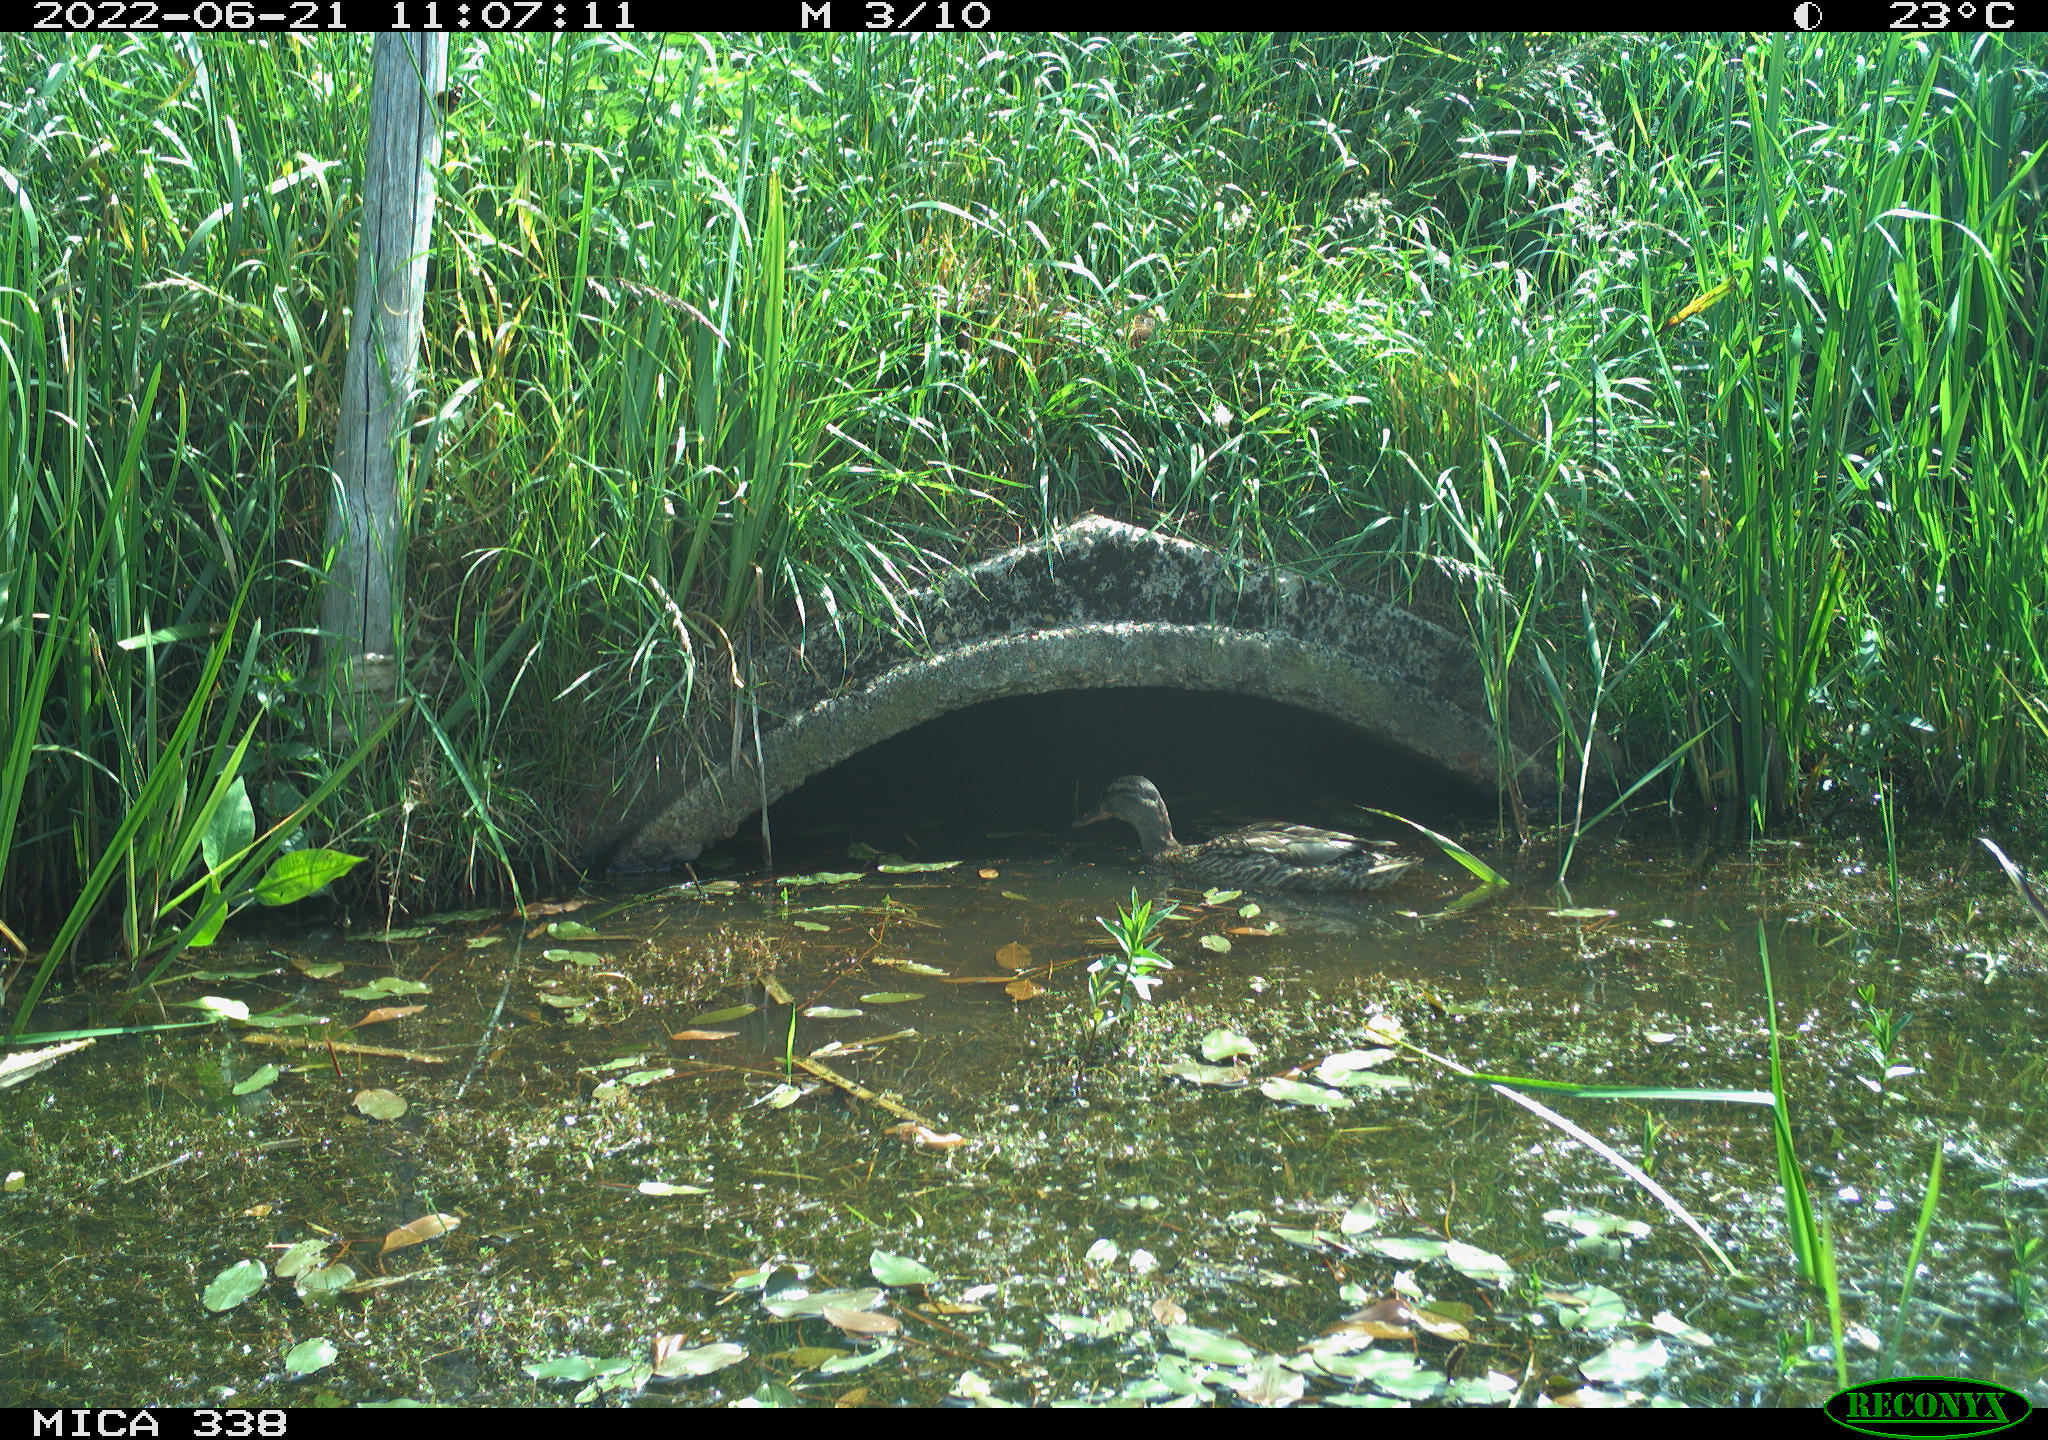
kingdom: Animalia
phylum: Chordata
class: Aves
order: Anseriformes
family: Anatidae
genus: Anas
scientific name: Anas platyrhynchos
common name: Mallard
